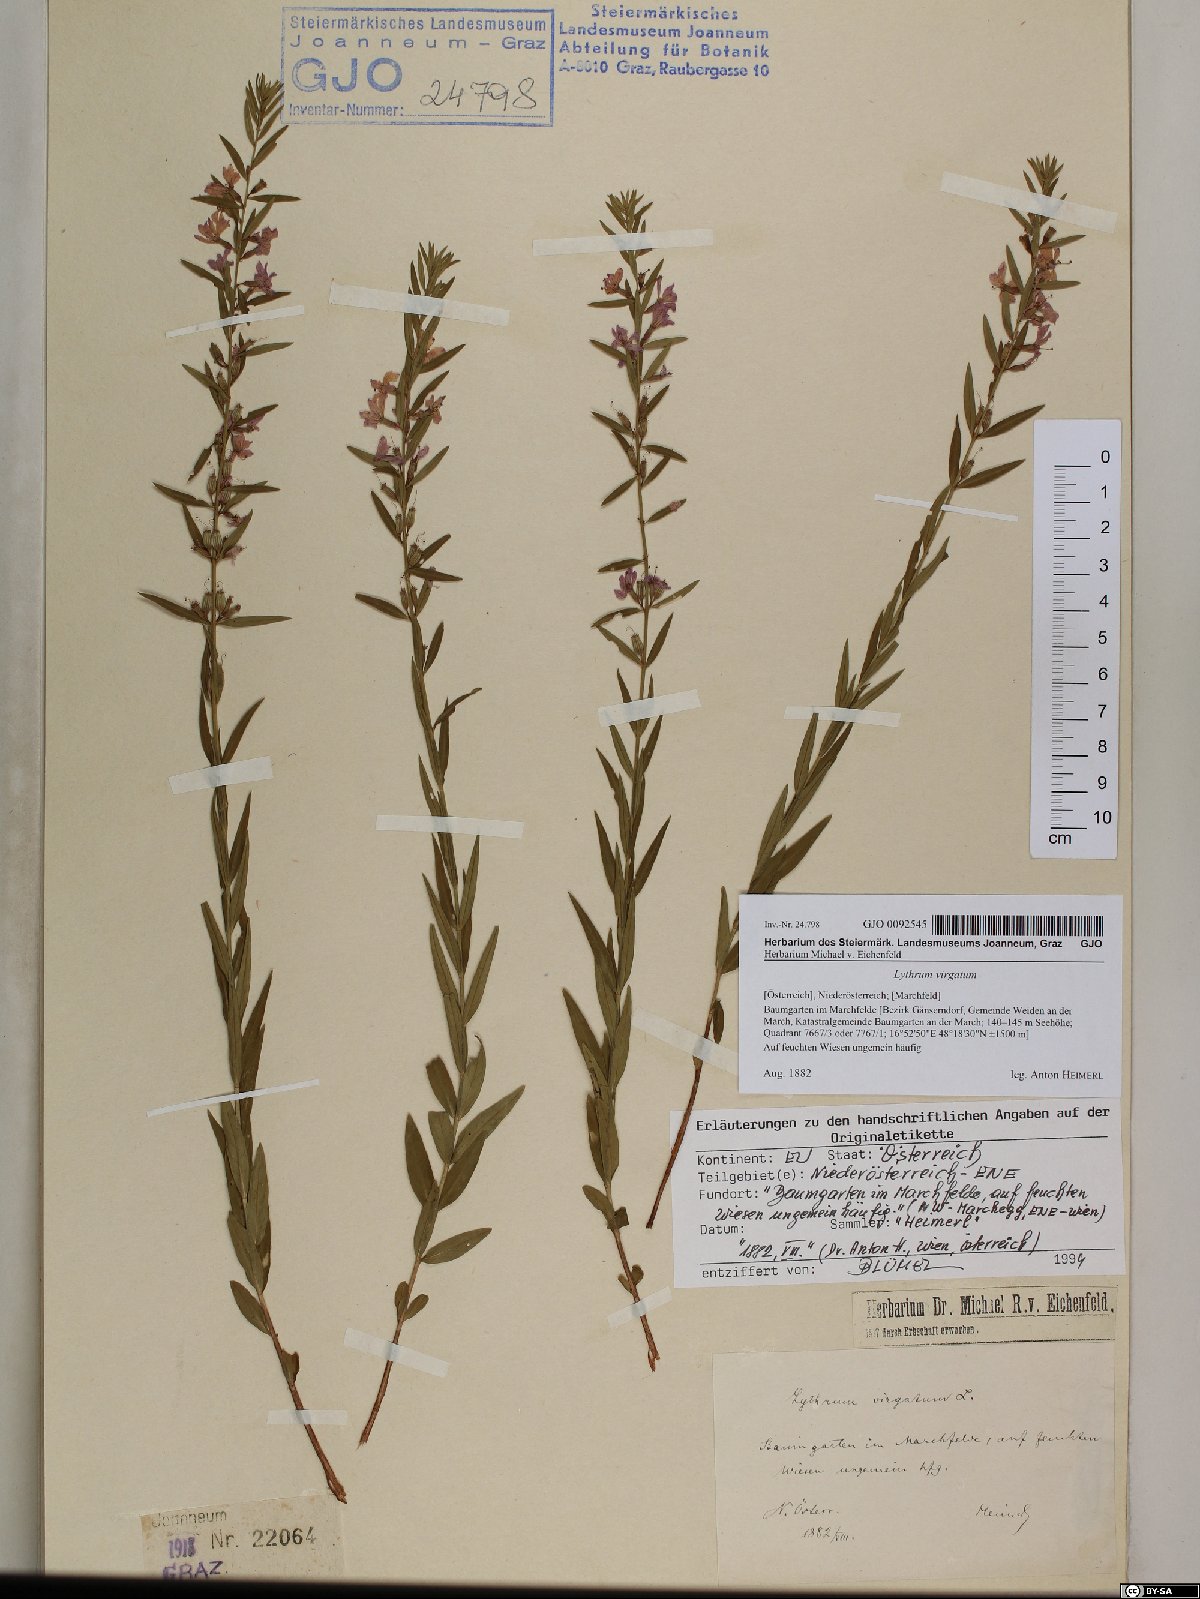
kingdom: Plantae
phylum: Tracheophyta
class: Magnoliopsida
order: Myrtales
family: Lythraceae
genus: Lythrum
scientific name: Lythrum virgatum
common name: European wand loosestrife
